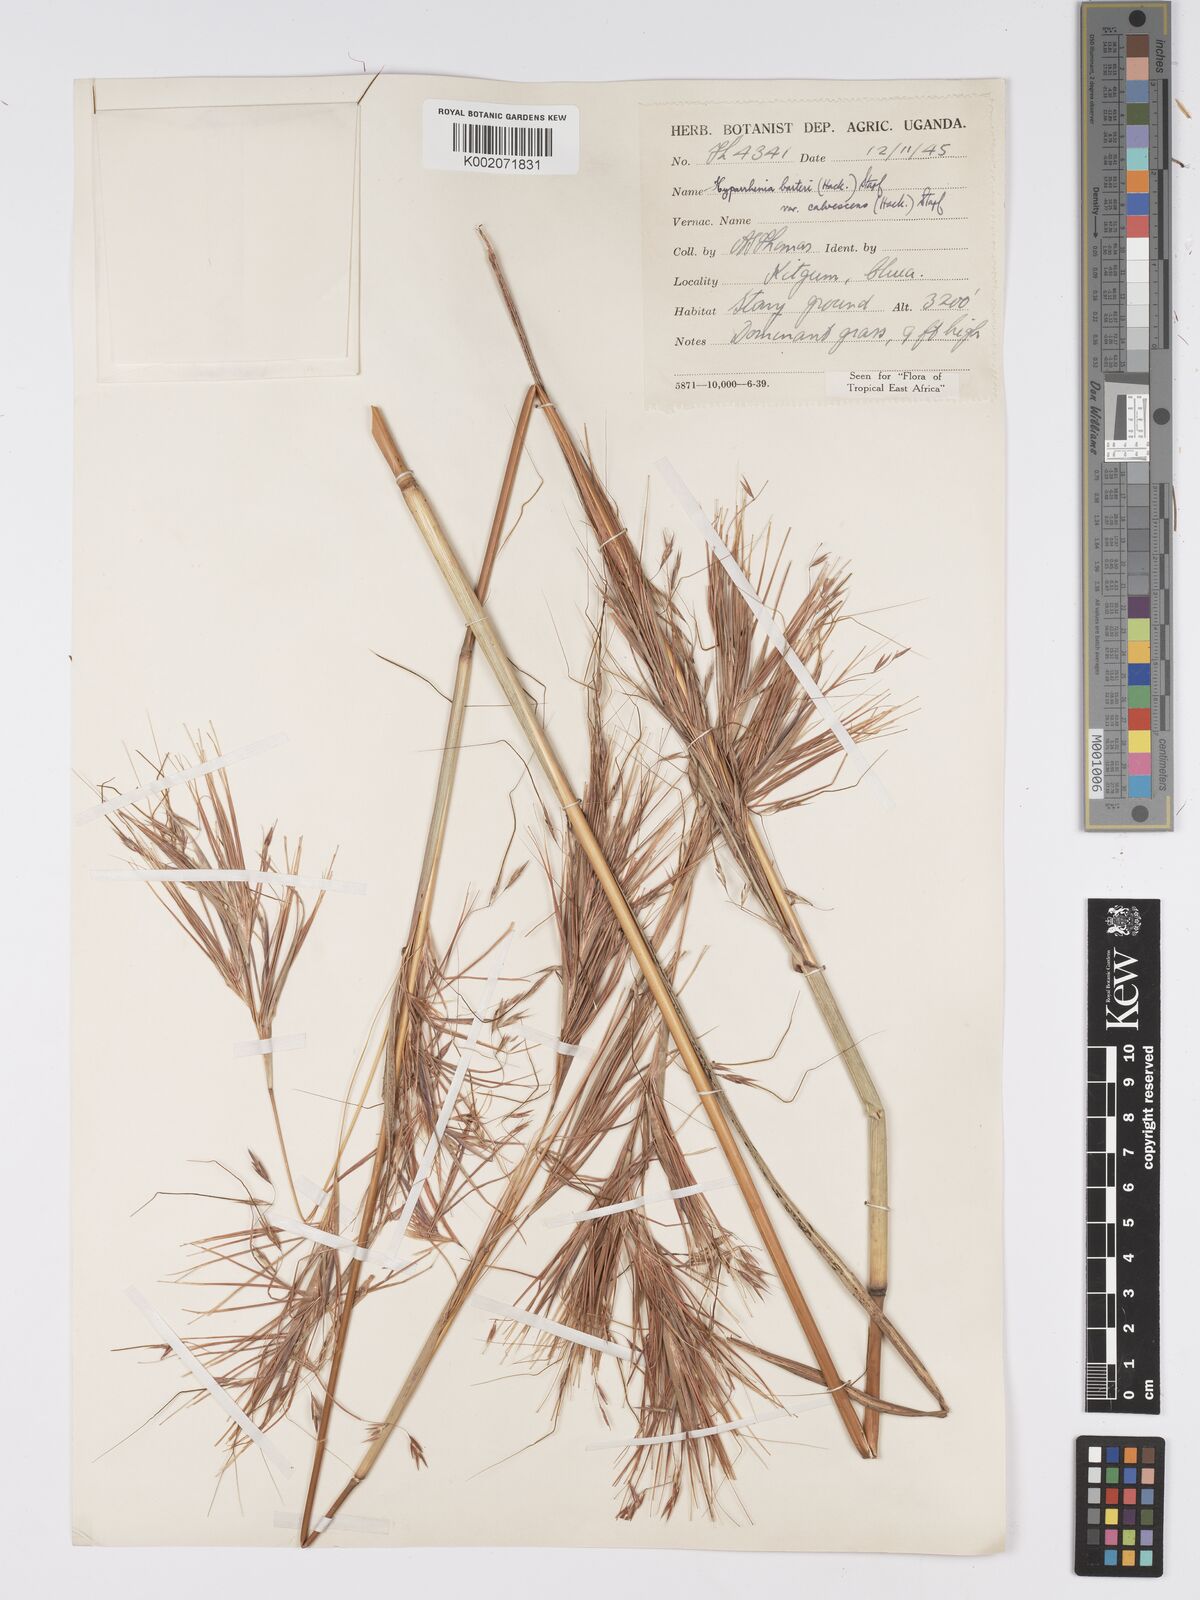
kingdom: Plantae
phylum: Tracheophyta
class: Liliopsida
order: Poales
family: Poaceae
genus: Hyparrhenia
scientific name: Hyparrhenia figariana
